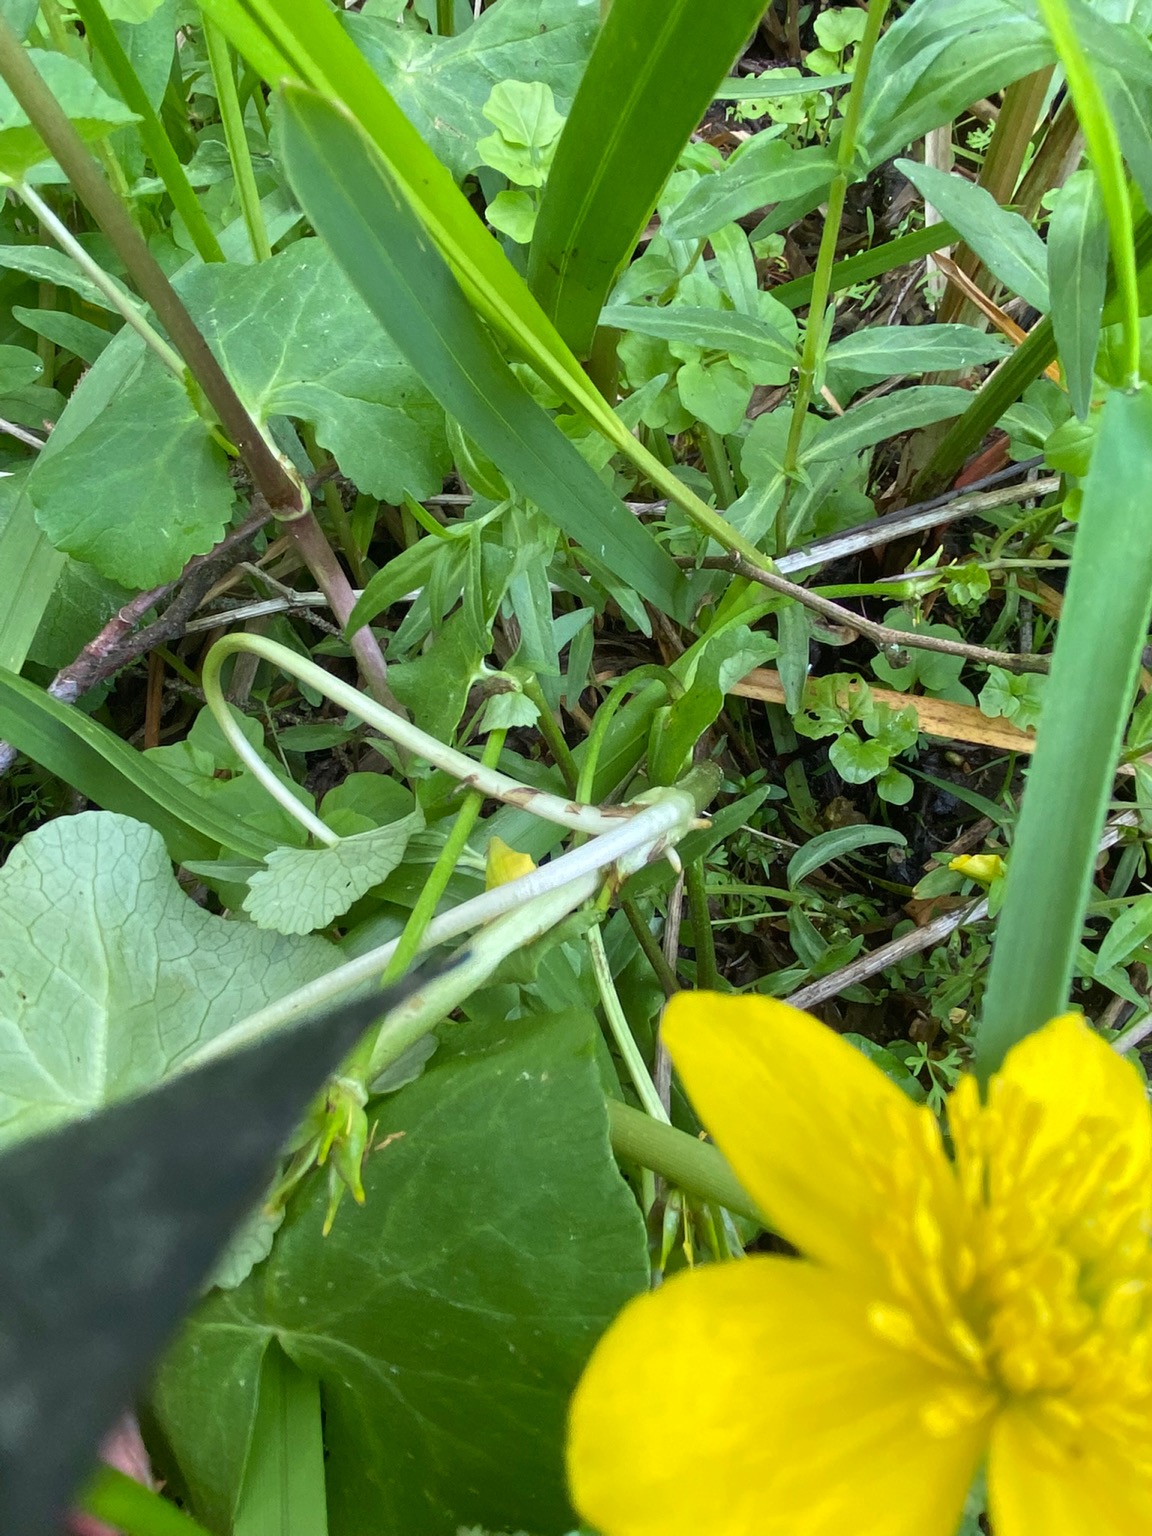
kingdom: Plantae
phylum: Tracheophyta
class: Magnoliopsida
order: Ranunculales
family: Ranunculaceae
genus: Caltha
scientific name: Caltha palustris
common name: Krybende kabbeleje
